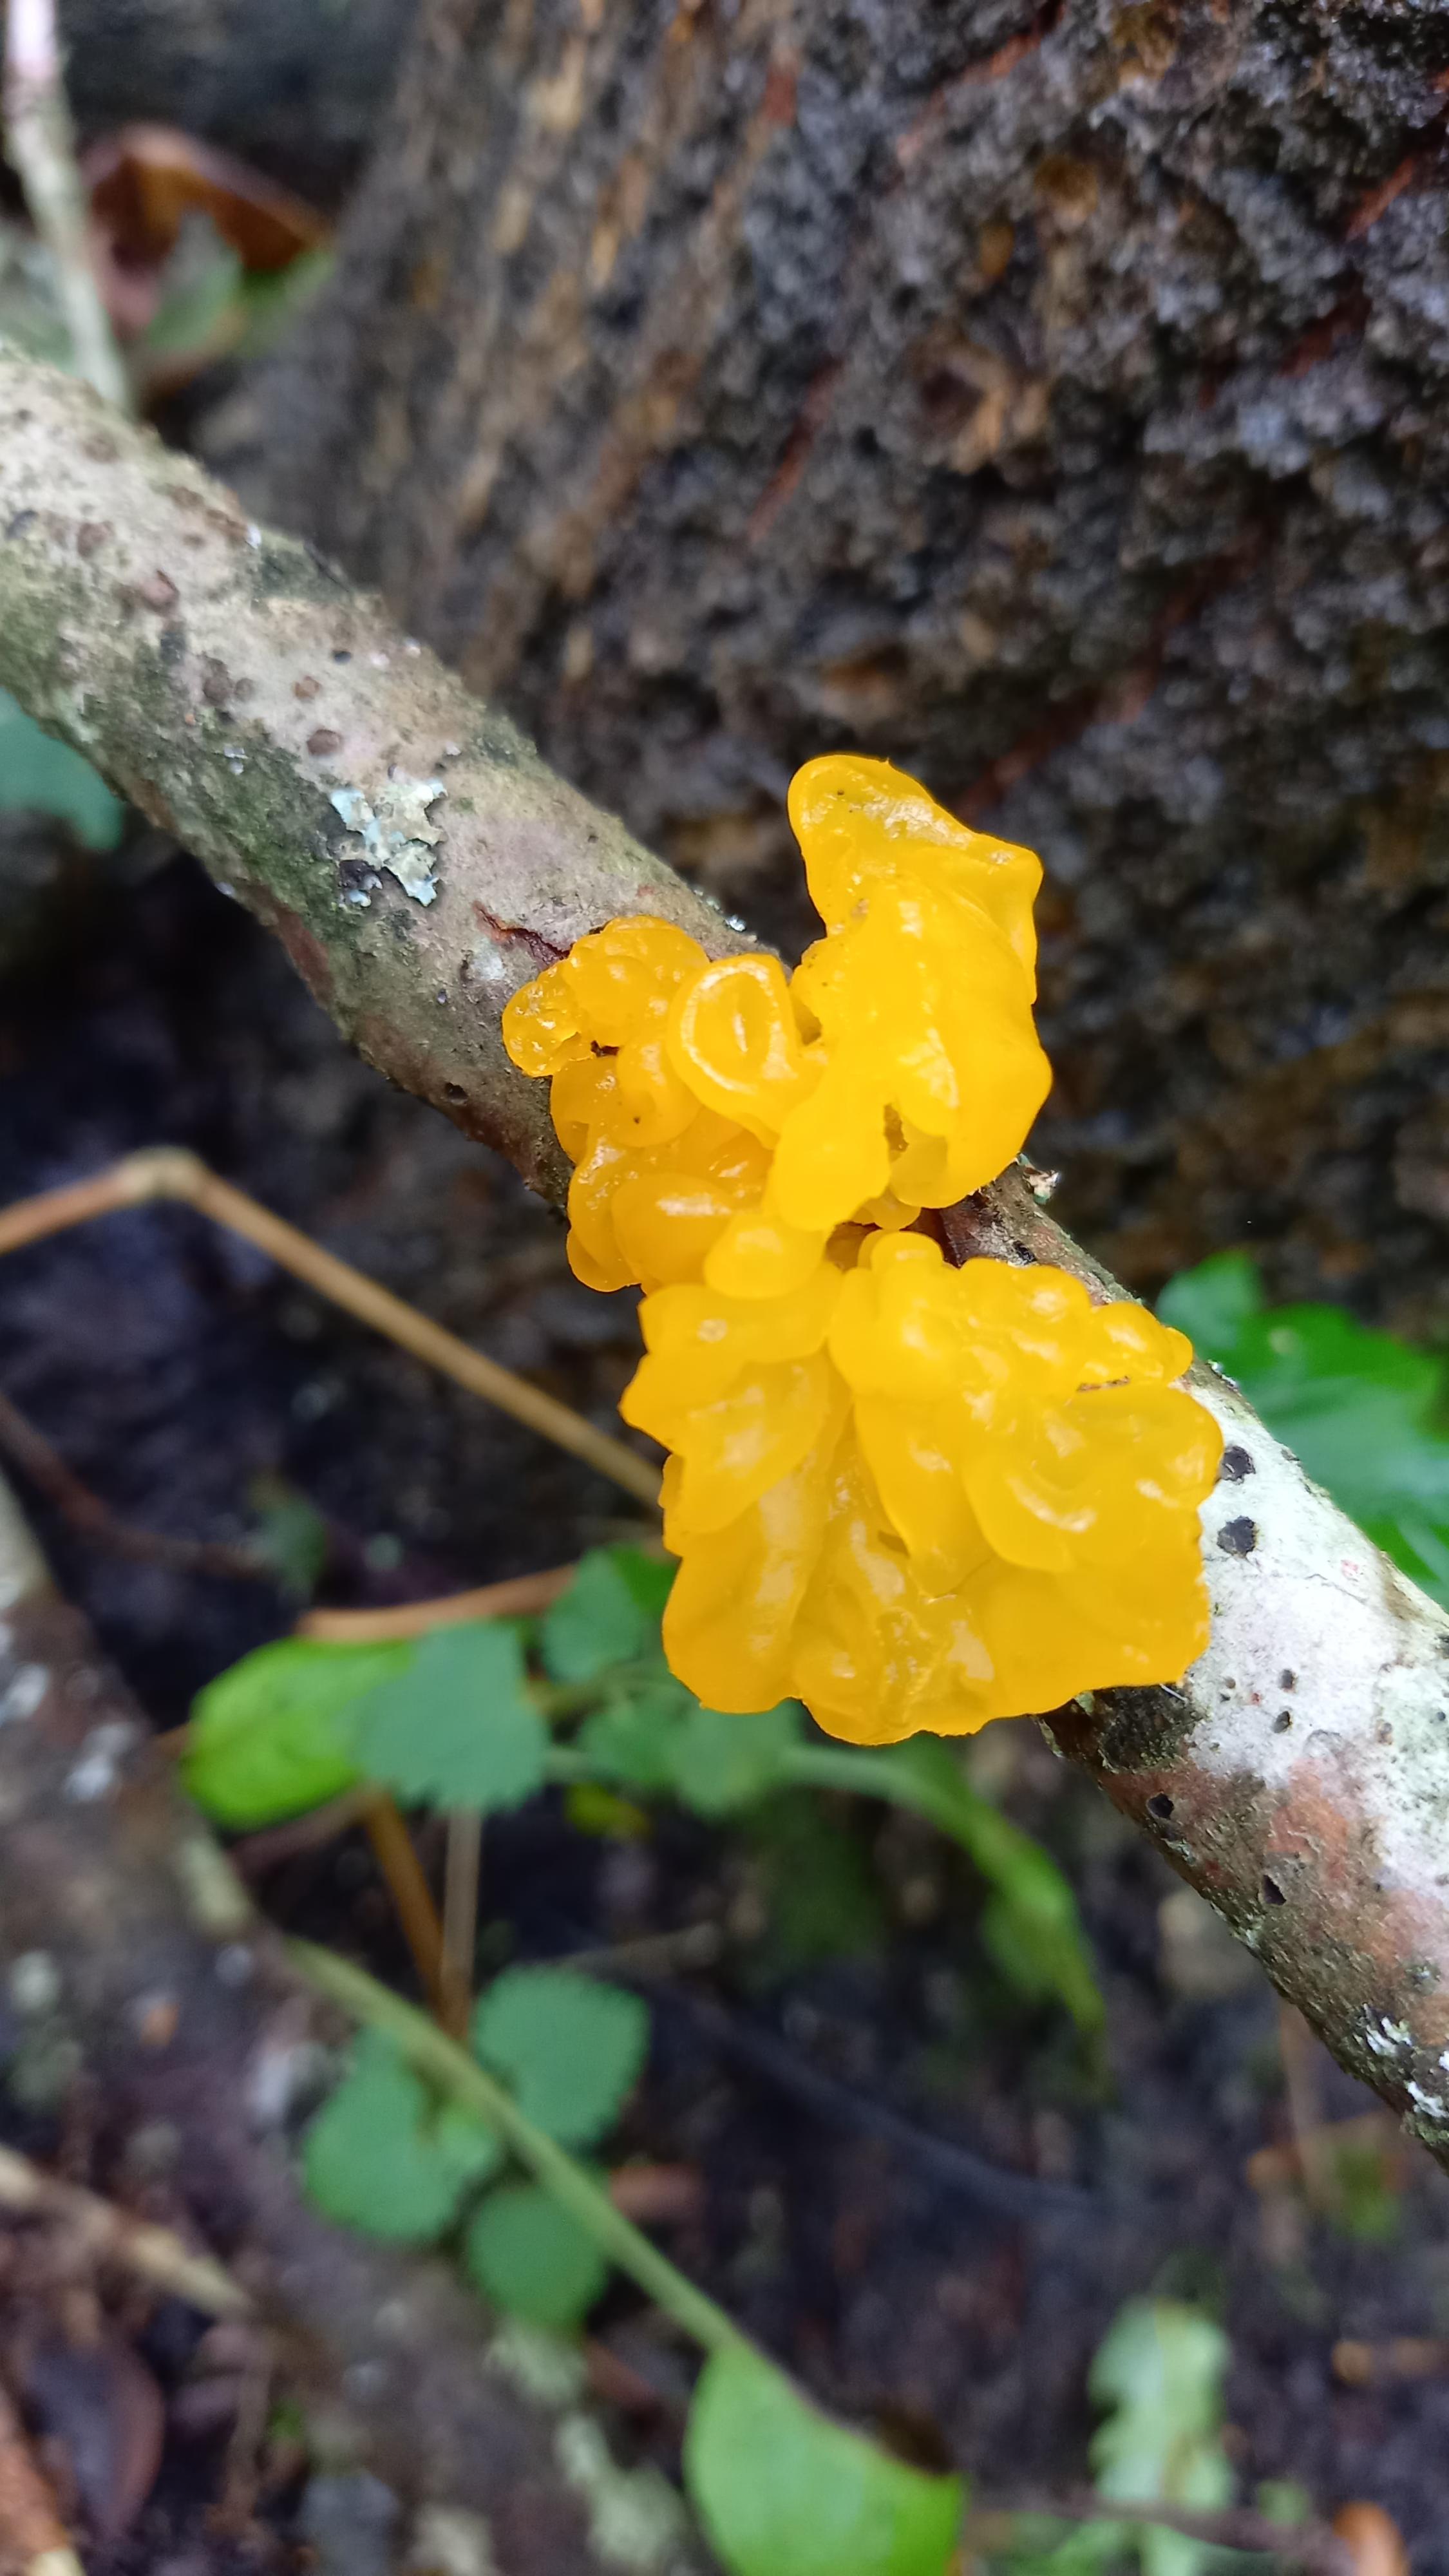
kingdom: Fungi
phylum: Basidiomycota
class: Tremellomycetes
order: Tremellales
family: Tremellaceae
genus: Tremella
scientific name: Tremella mesenterica
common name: gul bævresvamp
